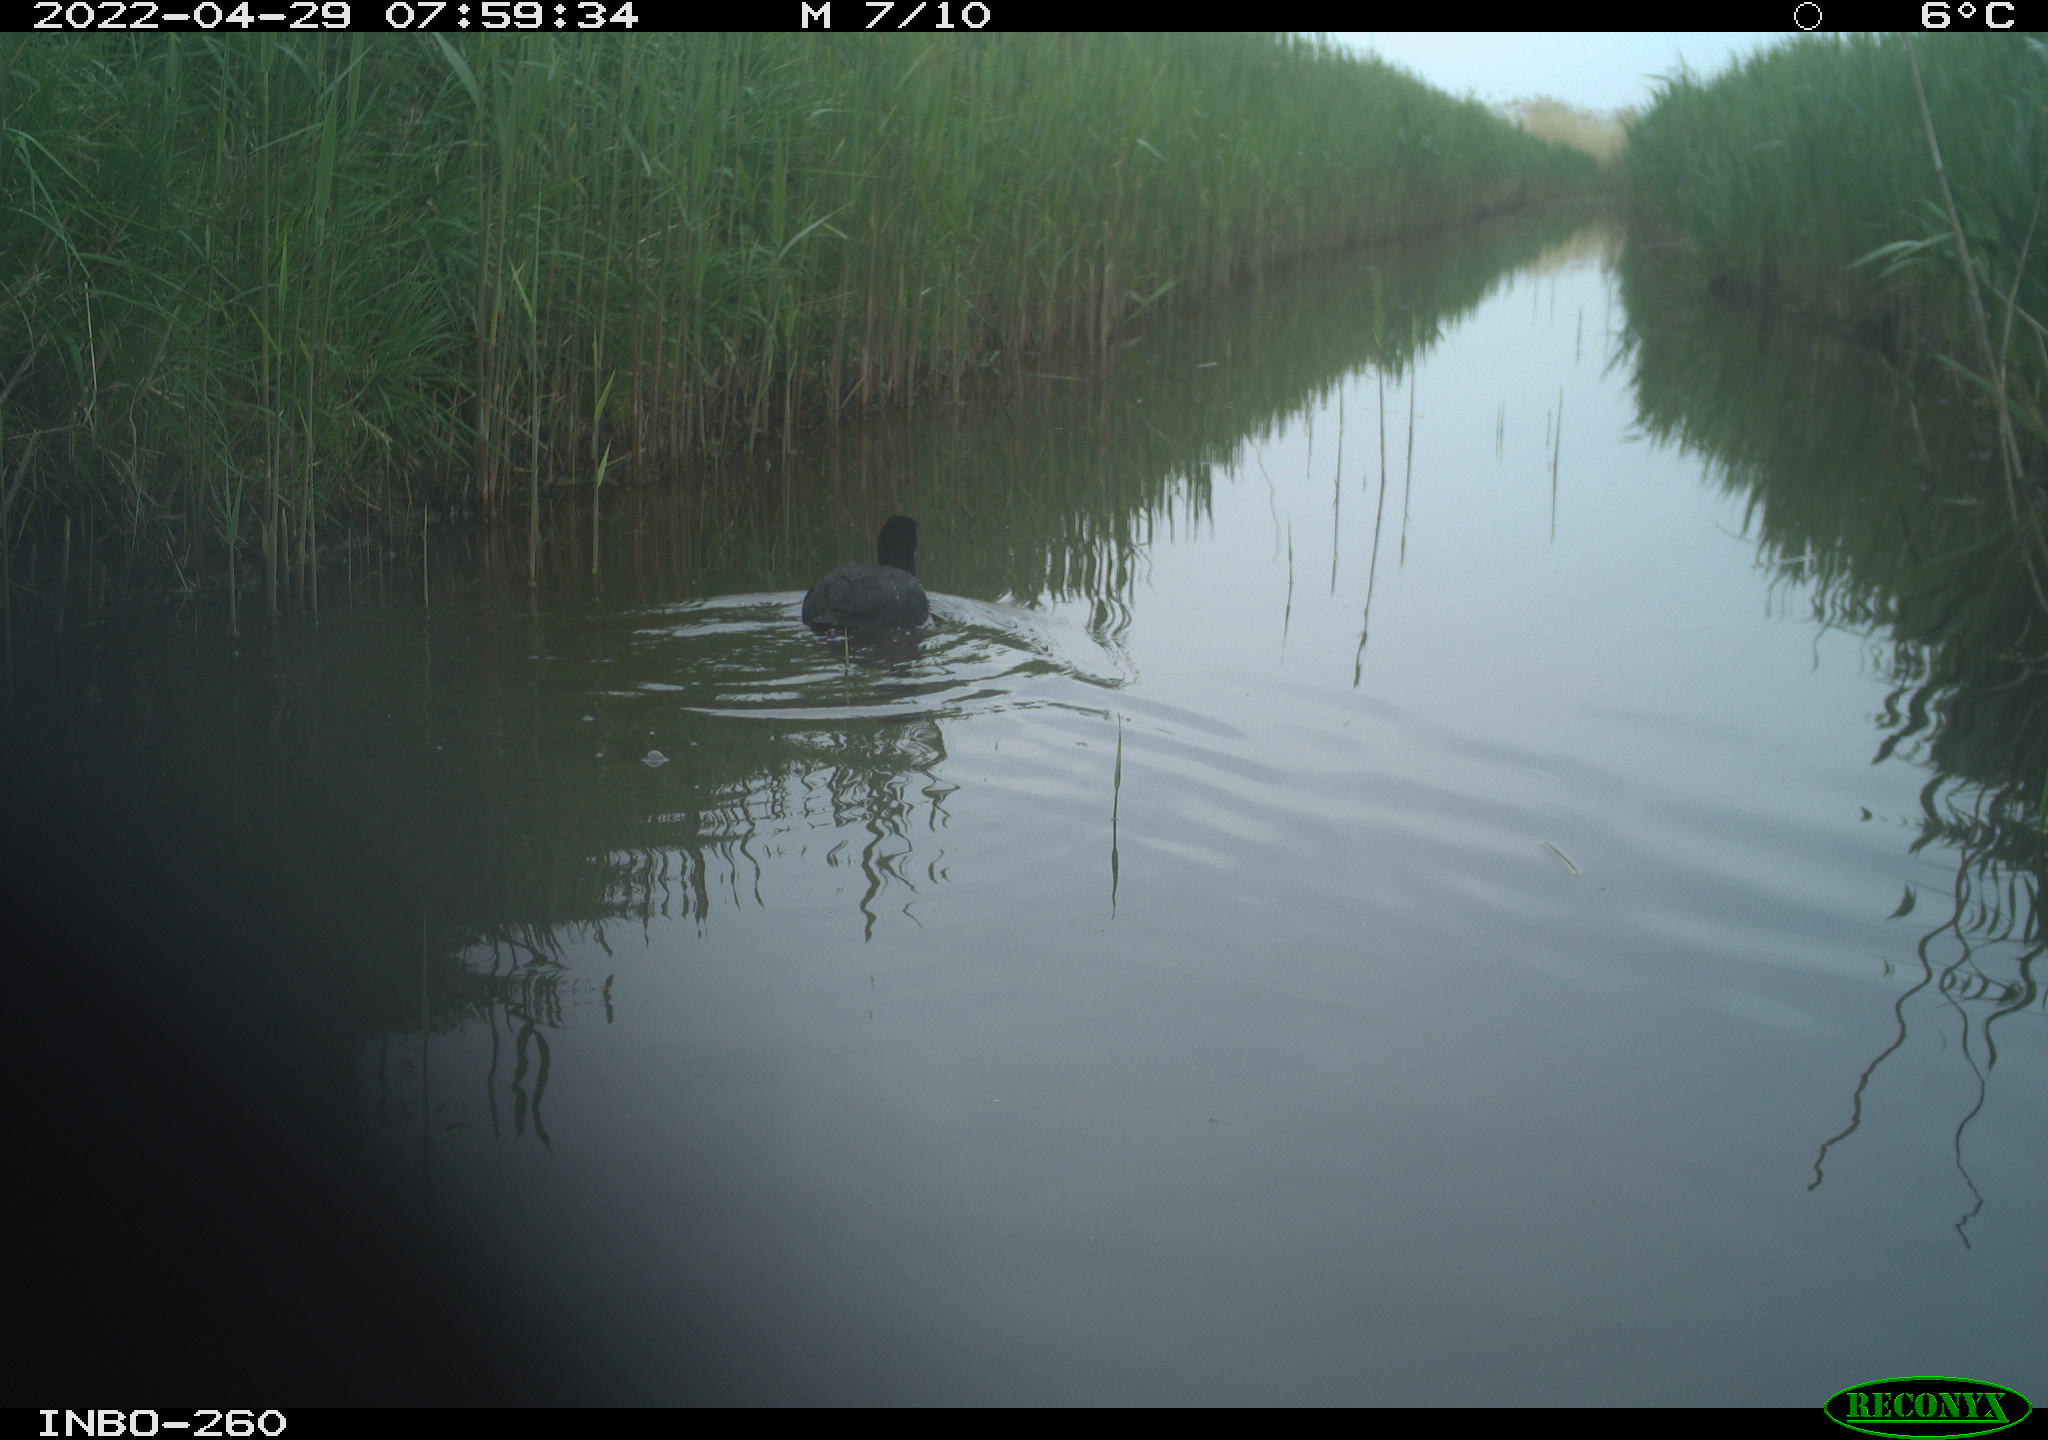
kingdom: Animalia
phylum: Chordata
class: Aves
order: Gruiformes
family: Rallidae
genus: Fulica
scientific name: Fulica atra
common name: Eurasian coot
